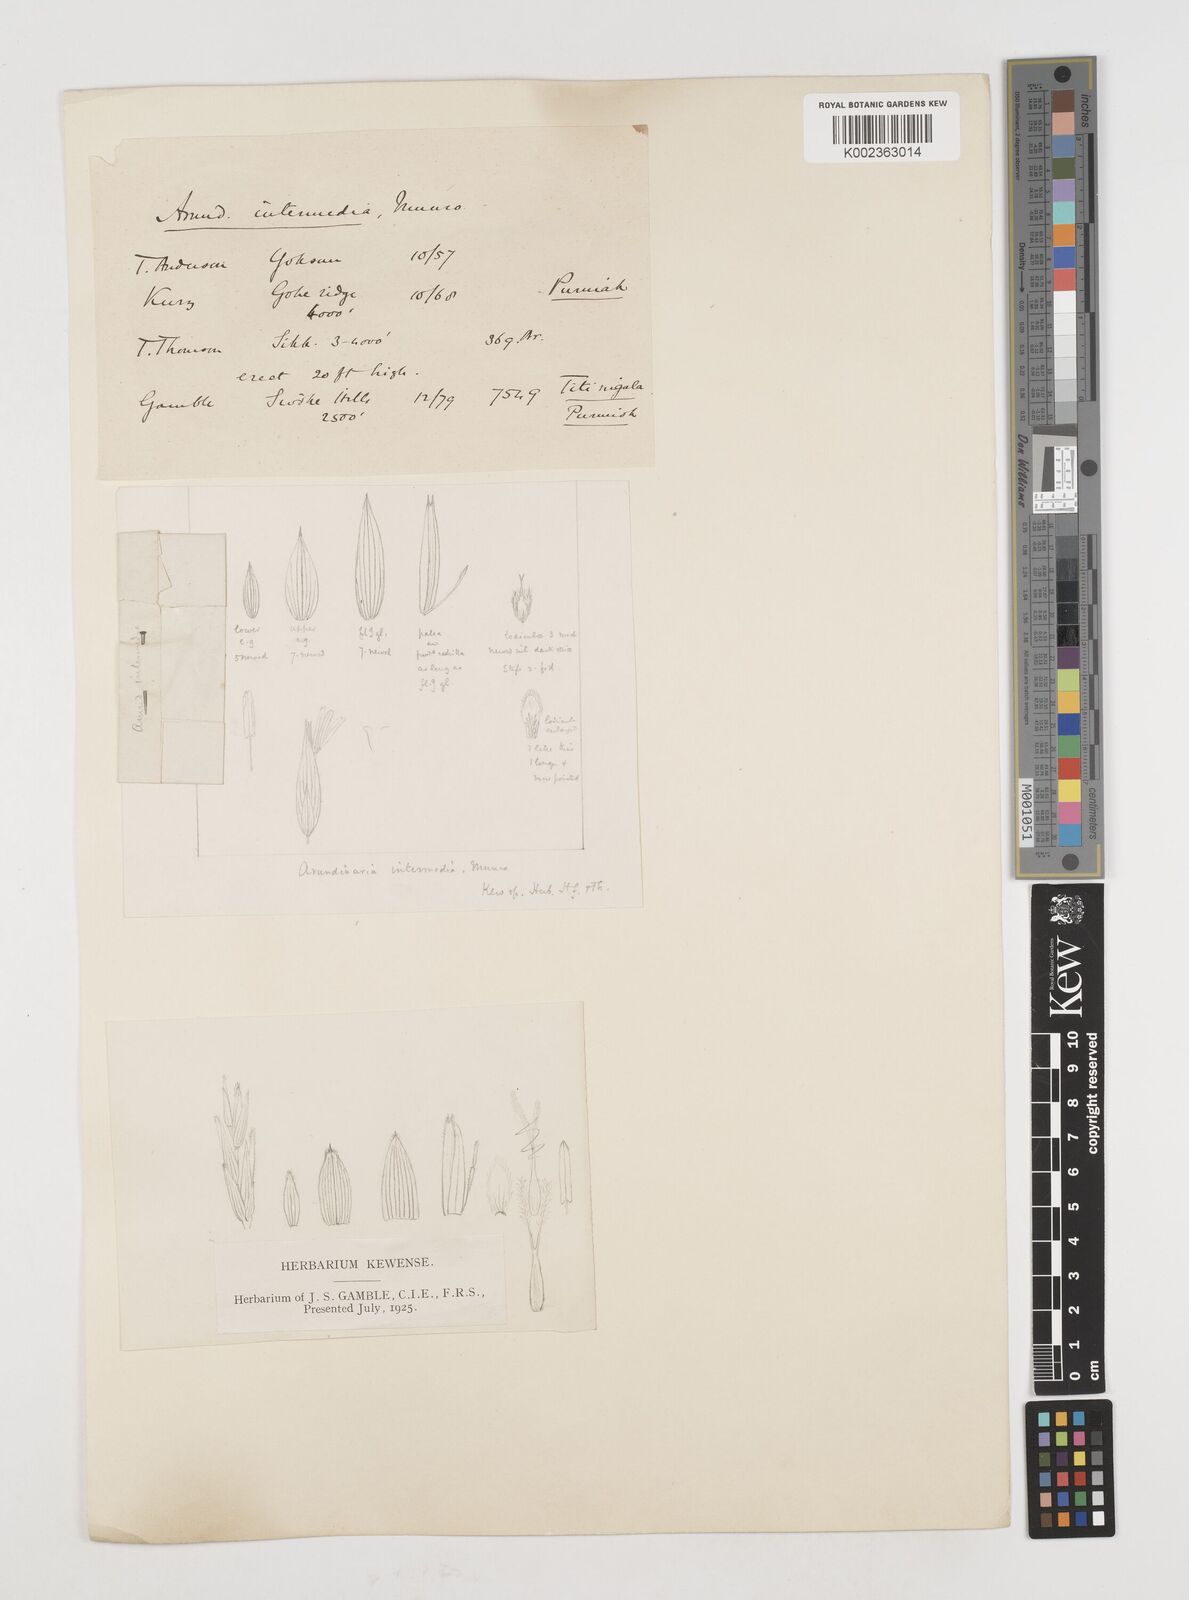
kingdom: Plantae
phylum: Tracheophyta
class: Liliopsida
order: Poales
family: Poaceae
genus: Drepanostachyum
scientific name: Drepanostachyum intermedium
